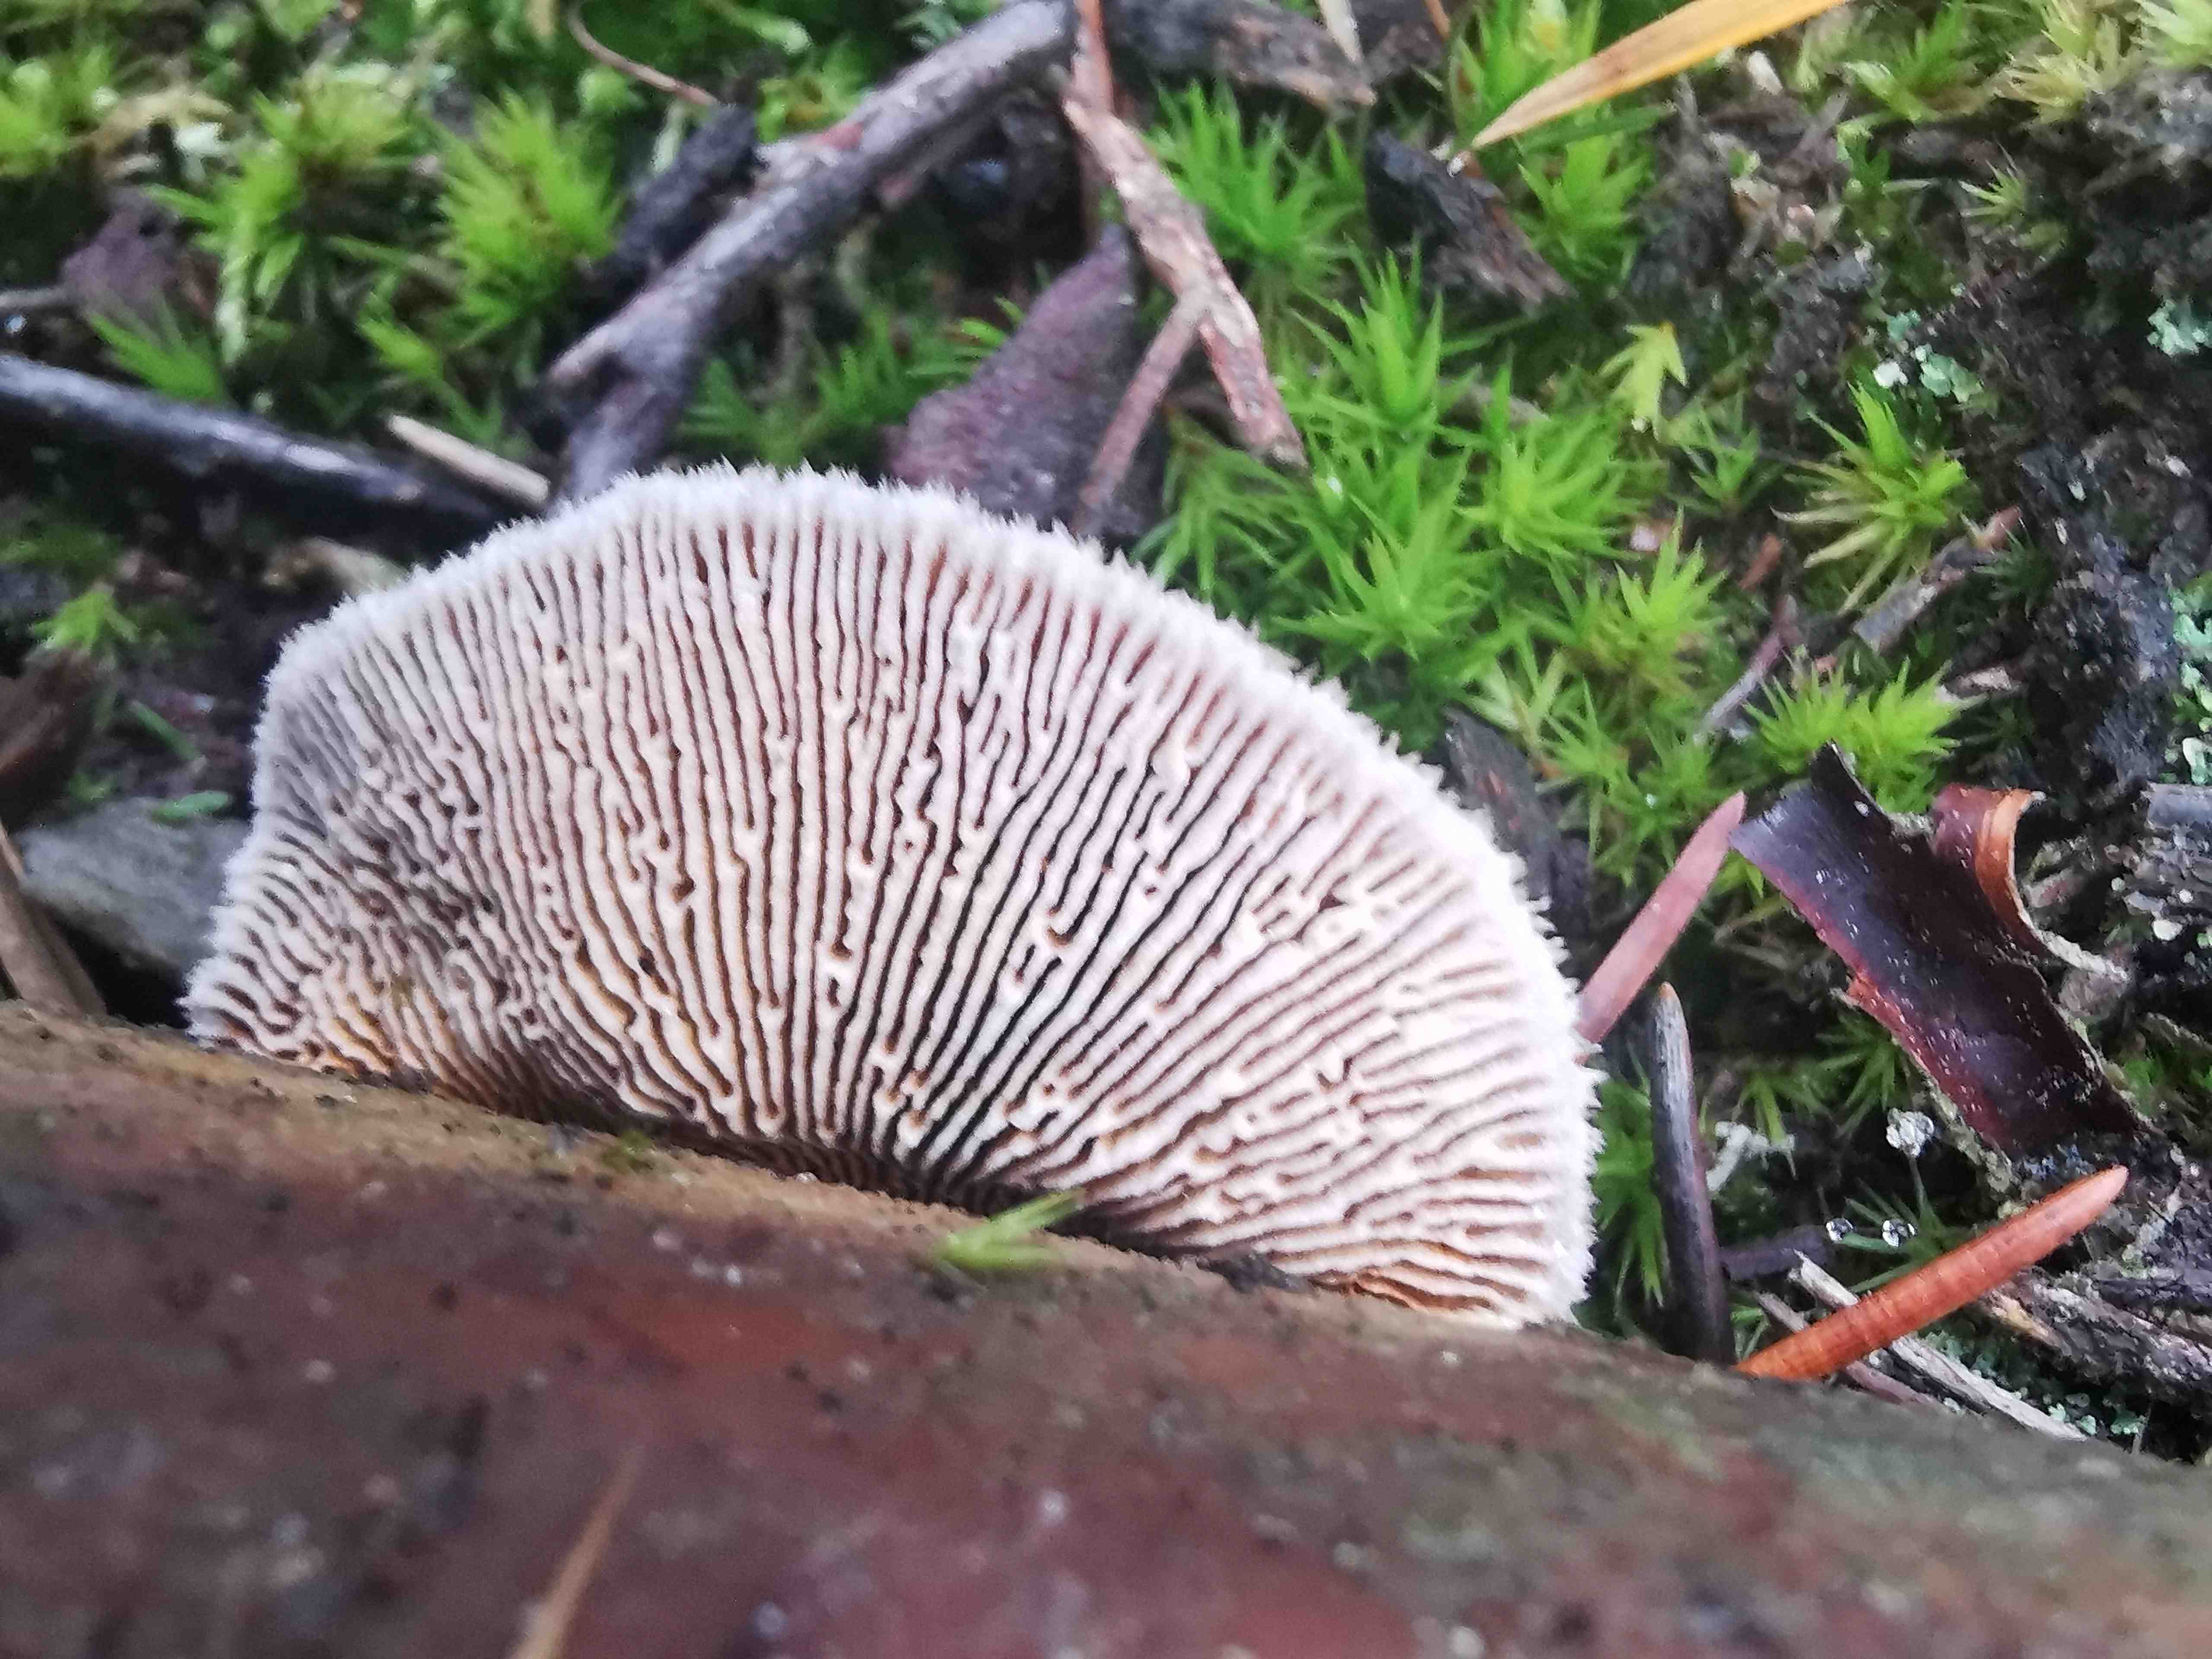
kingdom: Fungi
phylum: Basidiomycota
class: Agaricomycetes
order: Gloeophyllales
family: Gloeophyllaceae
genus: Gloeophyllum
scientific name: Gloeophyllum sepiarium
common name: fyrre-korkhat
